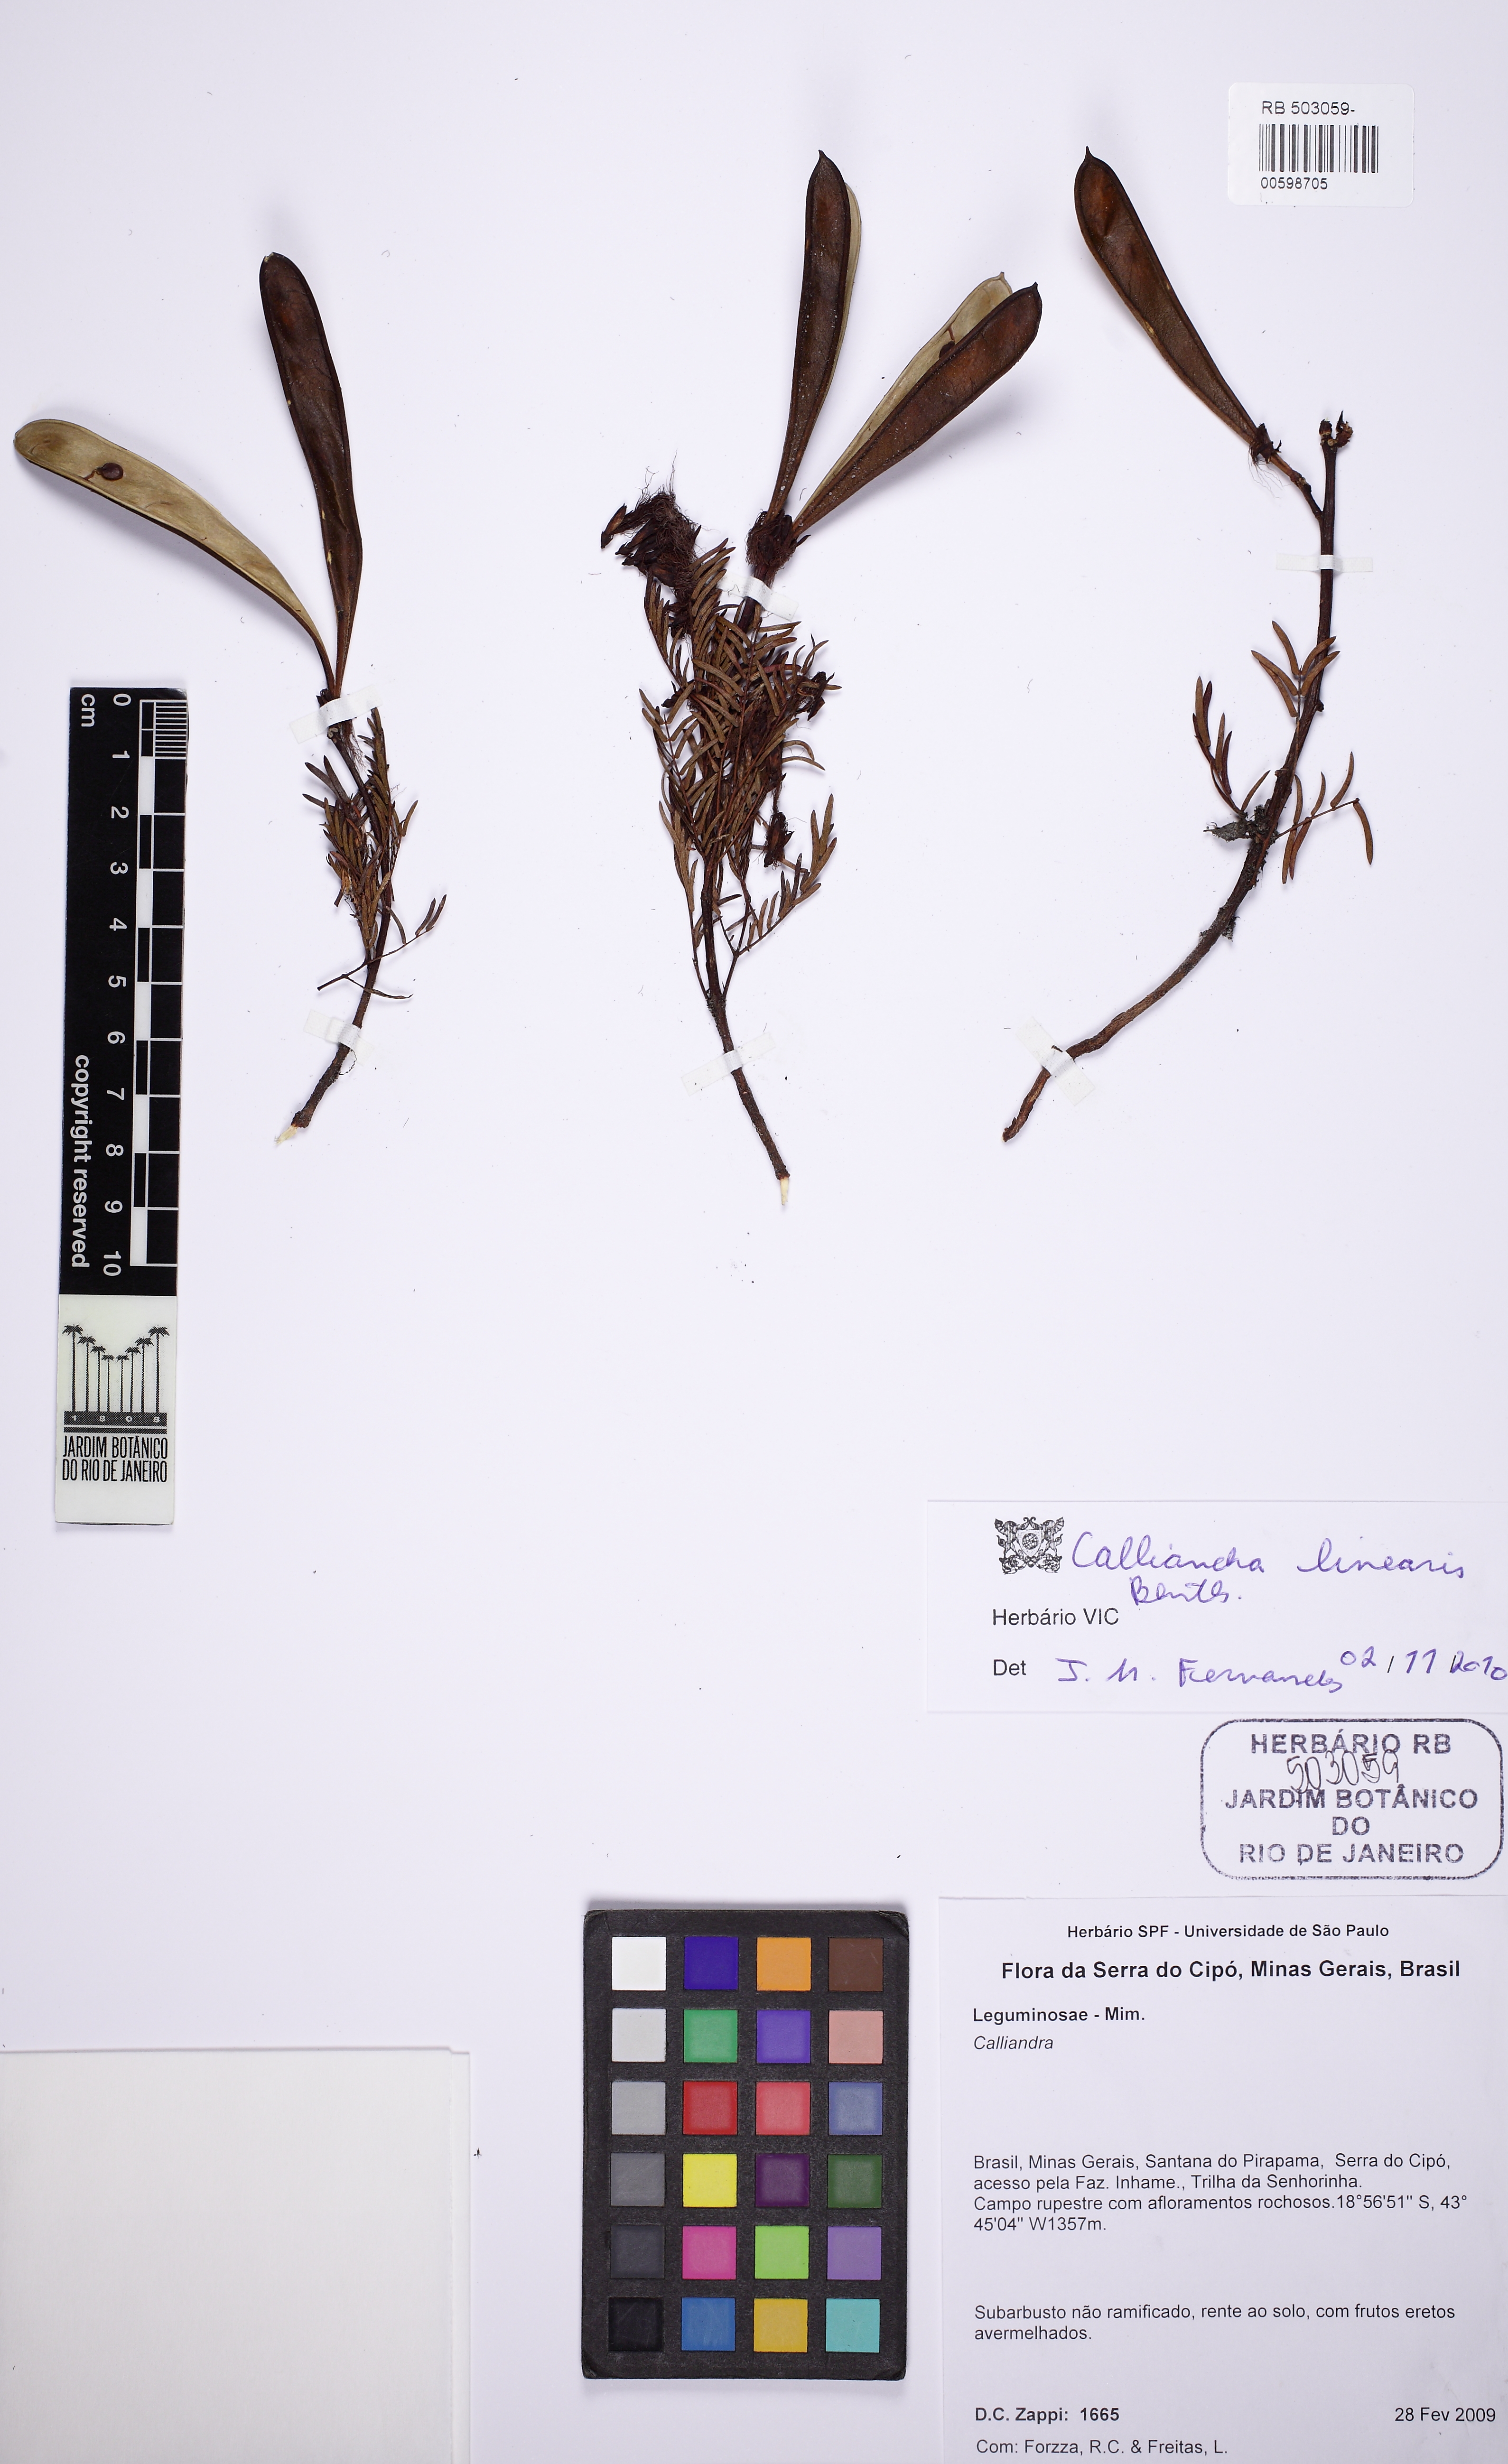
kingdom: Plantae
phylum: Tracheophyta
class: Magnoliopsida
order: Fabales
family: Fabaceae
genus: Calliandra
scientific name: Calliandra linearis
